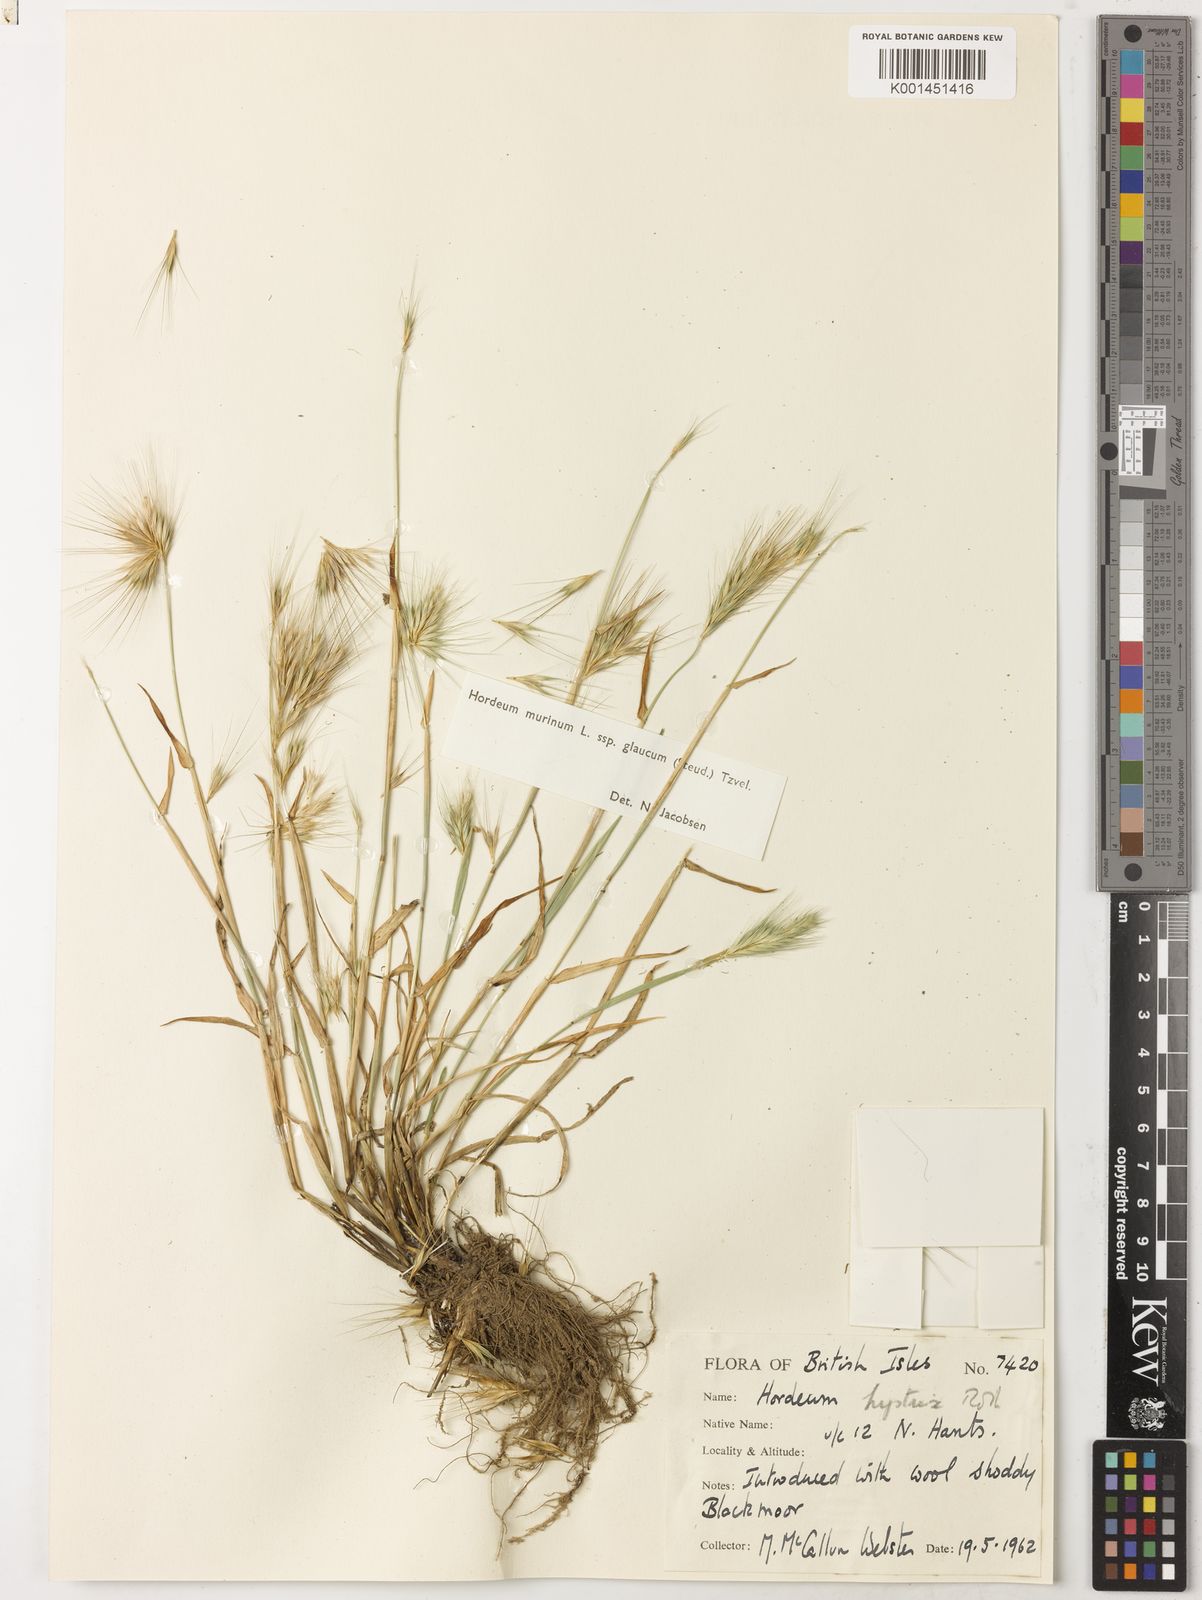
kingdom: Plantae
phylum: Tracheophyta
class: Liliopsida
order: Poales
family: Poaceae
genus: Hordeum
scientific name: Hordeum murinum
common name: Wall barley
